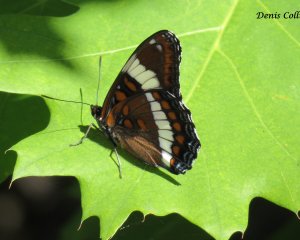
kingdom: Animalia
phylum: Arthropoda
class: Insecta
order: Lepidoptera
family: Nymphalidae
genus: Limenitis
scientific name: Limenitis arthemis
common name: Red-spotted Admiral
